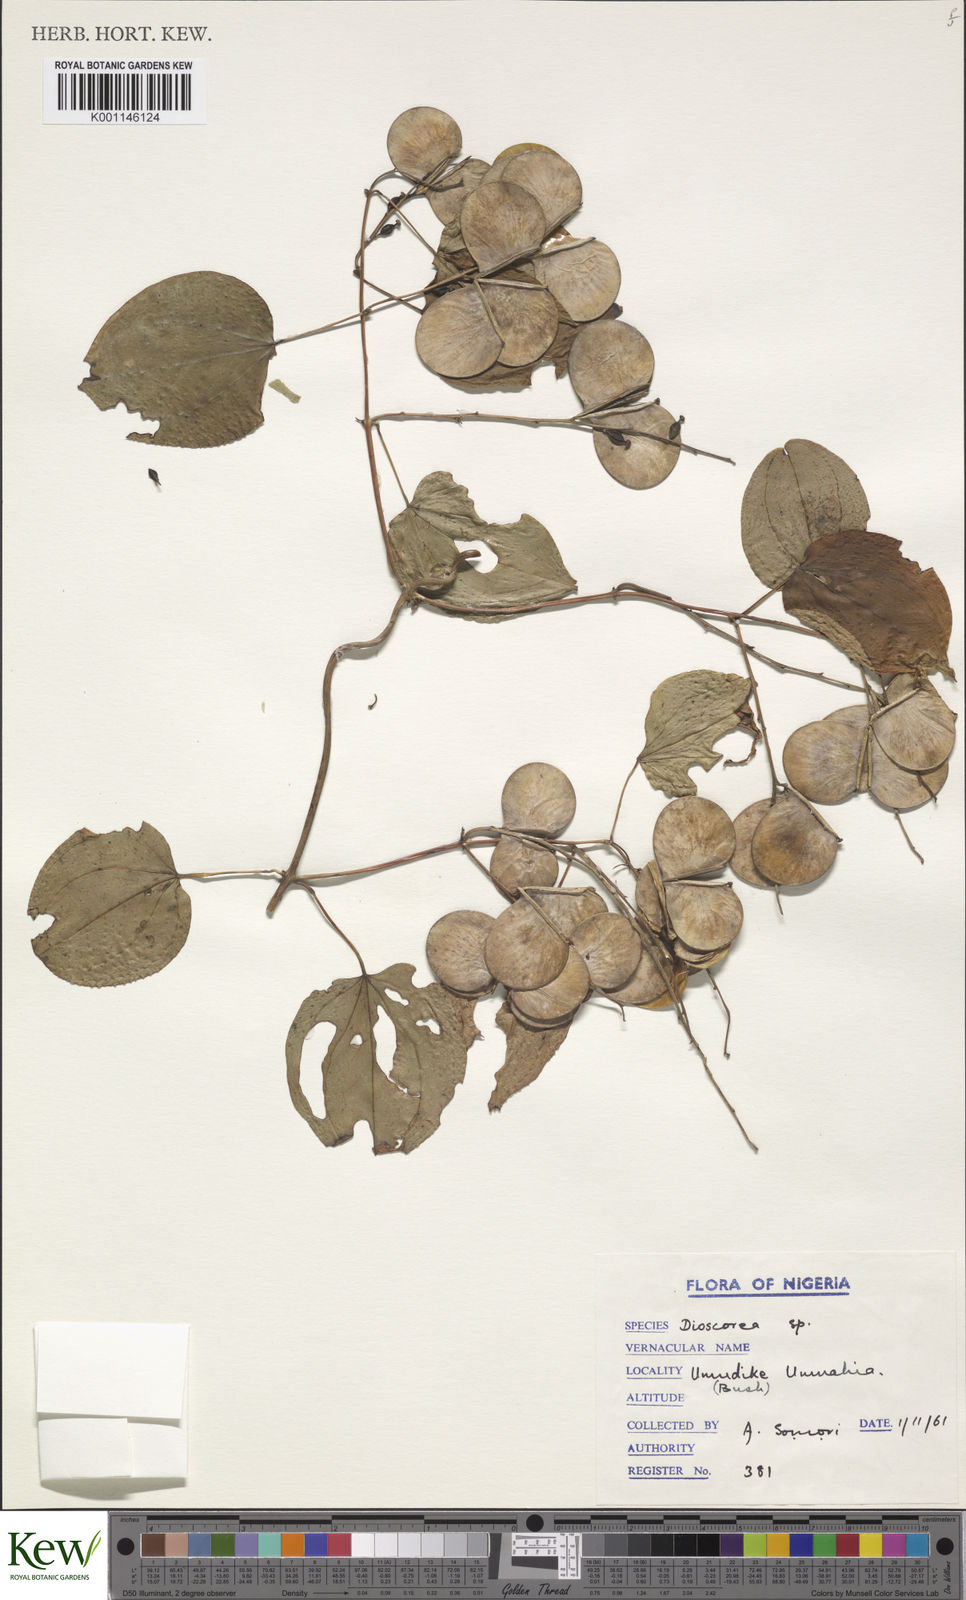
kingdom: Plantae
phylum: Tracheophyta
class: Liliopsida
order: Dioscoreales
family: Dioscoreaceae
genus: Dioscorea
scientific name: Dioscorea
